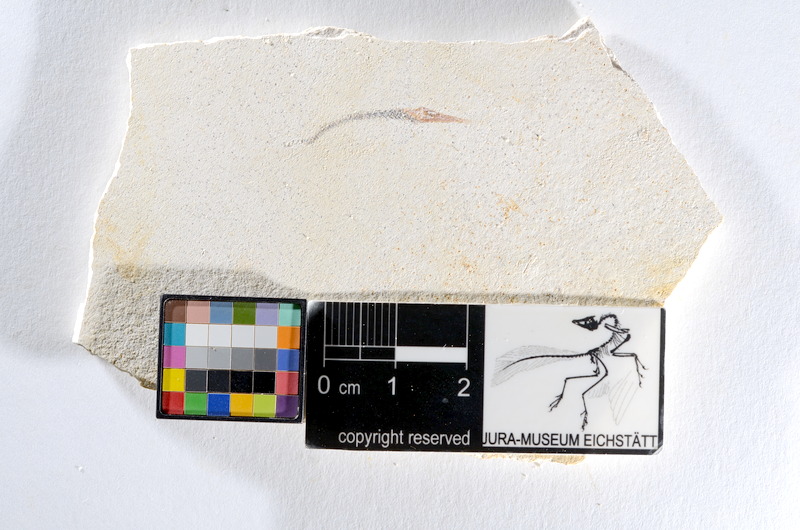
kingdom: Animalia
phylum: Chordata
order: Salmoniformes
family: Orthogonikleithridae
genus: Orthogonikleithrus
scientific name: Orthogonikleithrus hoelli
